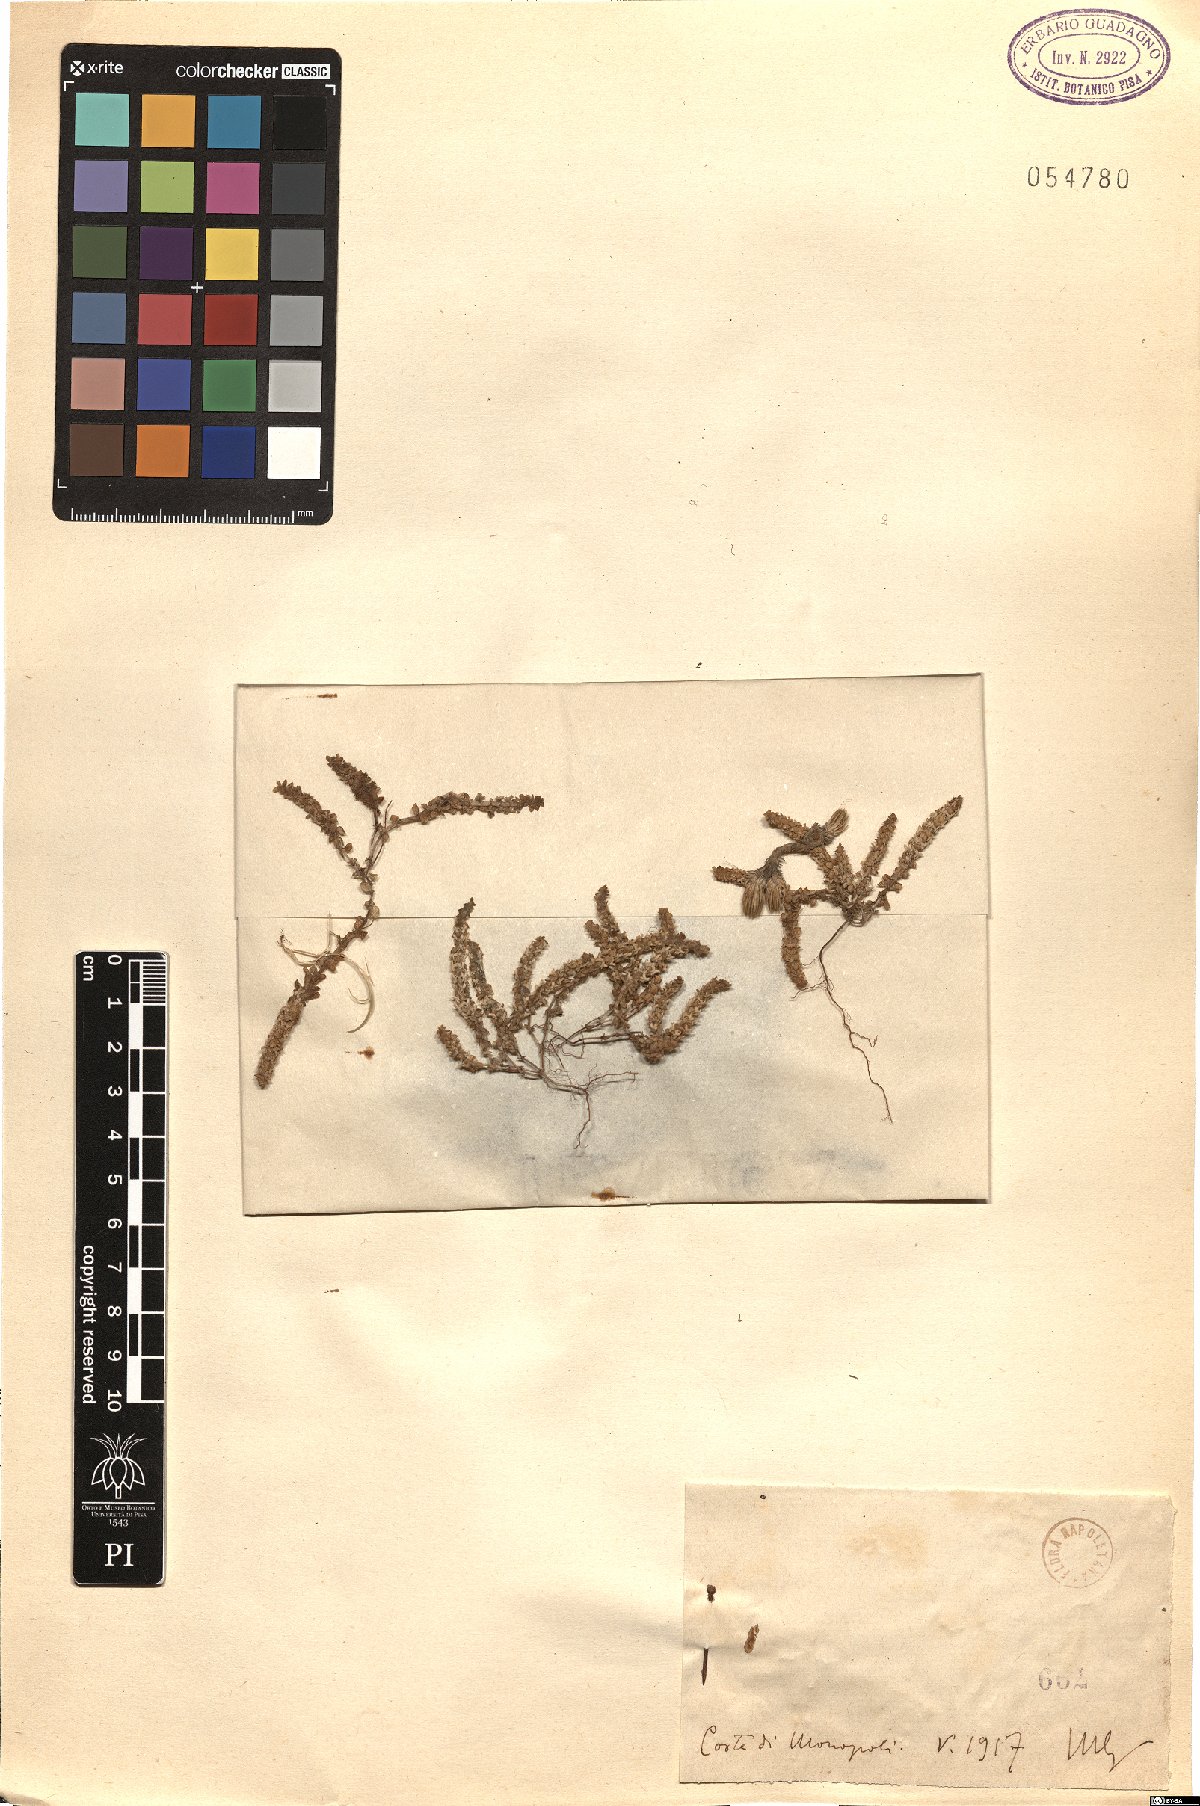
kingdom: Animalia
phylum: Arthropoda
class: Insecta
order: Diptera
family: Psychodidae
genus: Vaillantia
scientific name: Vaillantia
